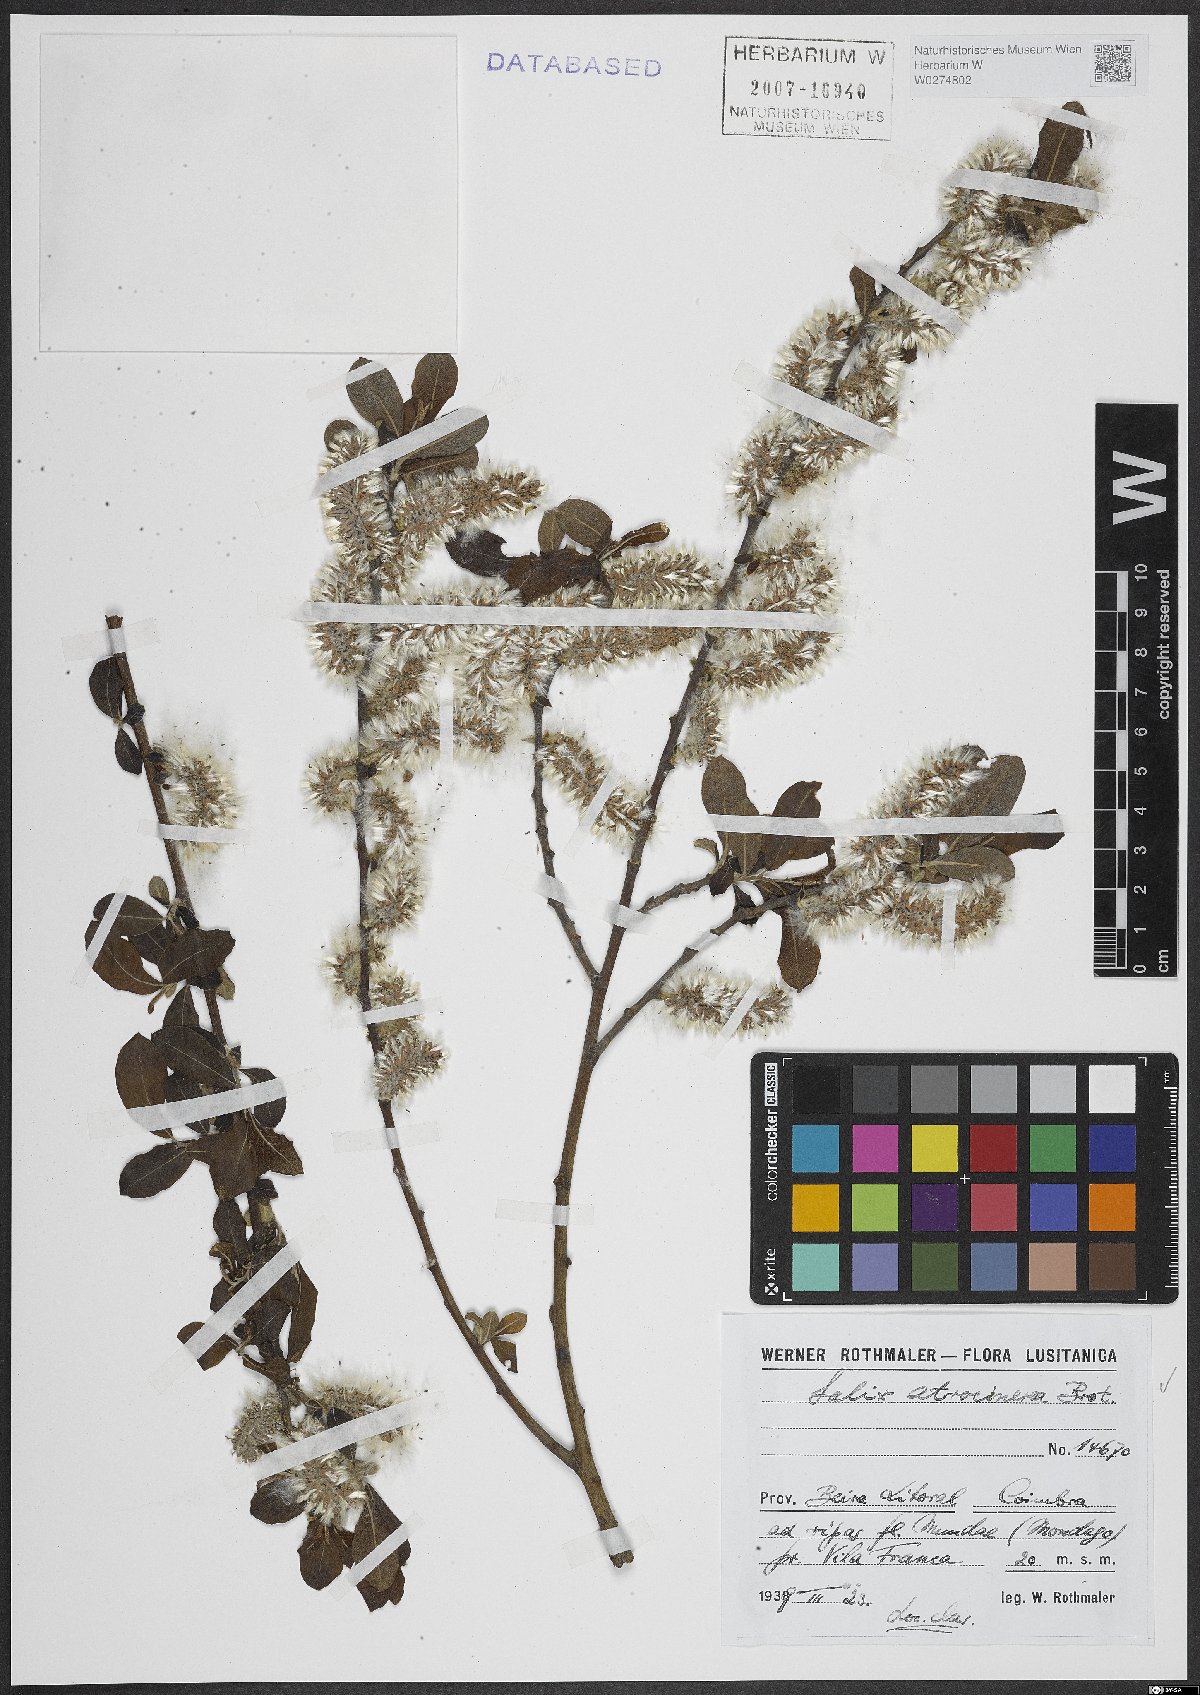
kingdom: Plantae
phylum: Tracheophyta
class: Magnoliopsida
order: Malpighiales
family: Salicaceae
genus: Salix
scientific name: Salix atrocinerea
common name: Rusty willow
